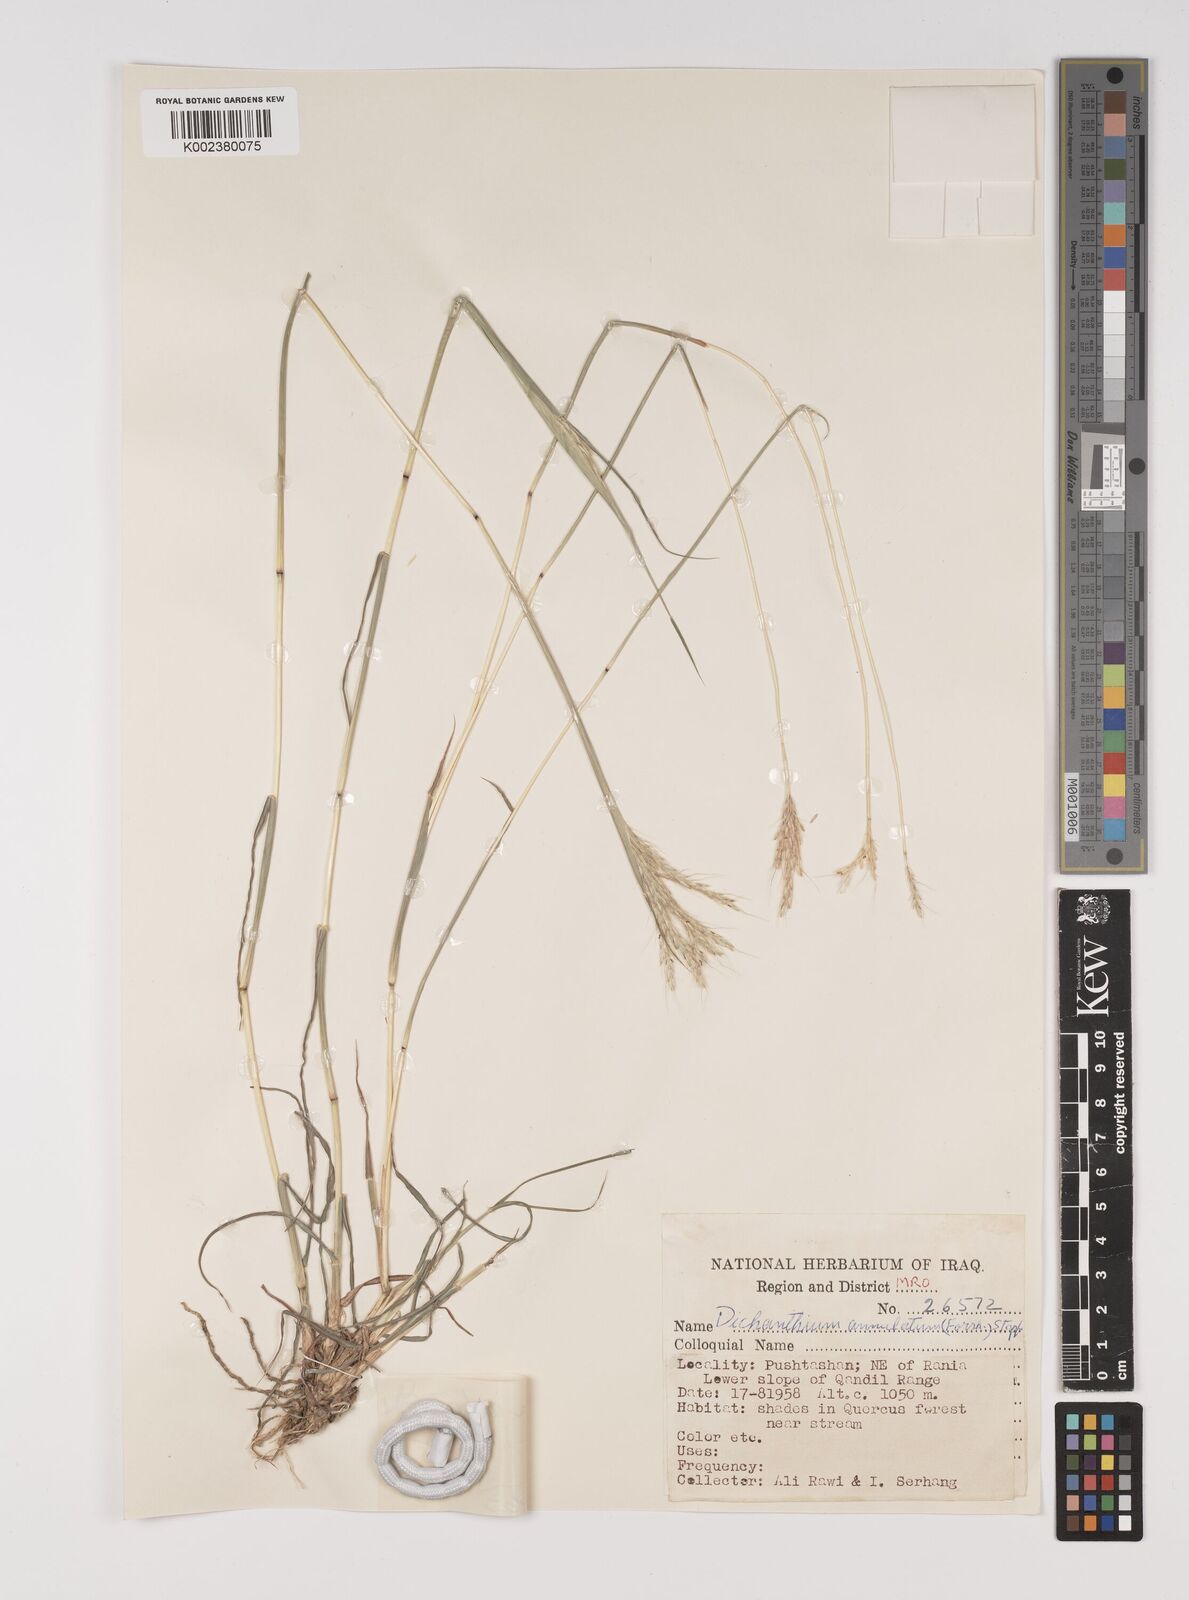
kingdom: Plantae
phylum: Tracheophyta
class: Liliopsida
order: Poales
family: Poaceae
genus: Bothriochloa
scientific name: Bothriochloa ischaemum
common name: Yellow bluestem
